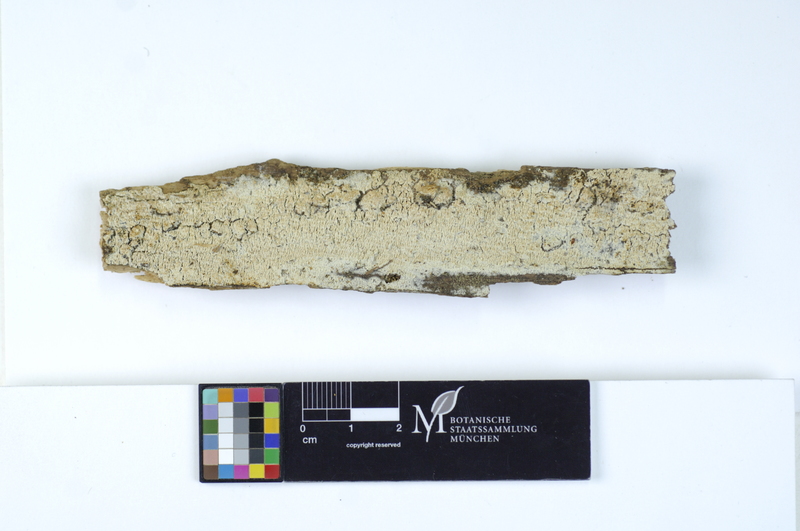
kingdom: Fungi
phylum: Basidiomycota
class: Agaricomycetes
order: Hymenochaetales
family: Schizoporaceae
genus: Schizopora
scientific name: Schizopora paradoxa
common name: Split porecrust
